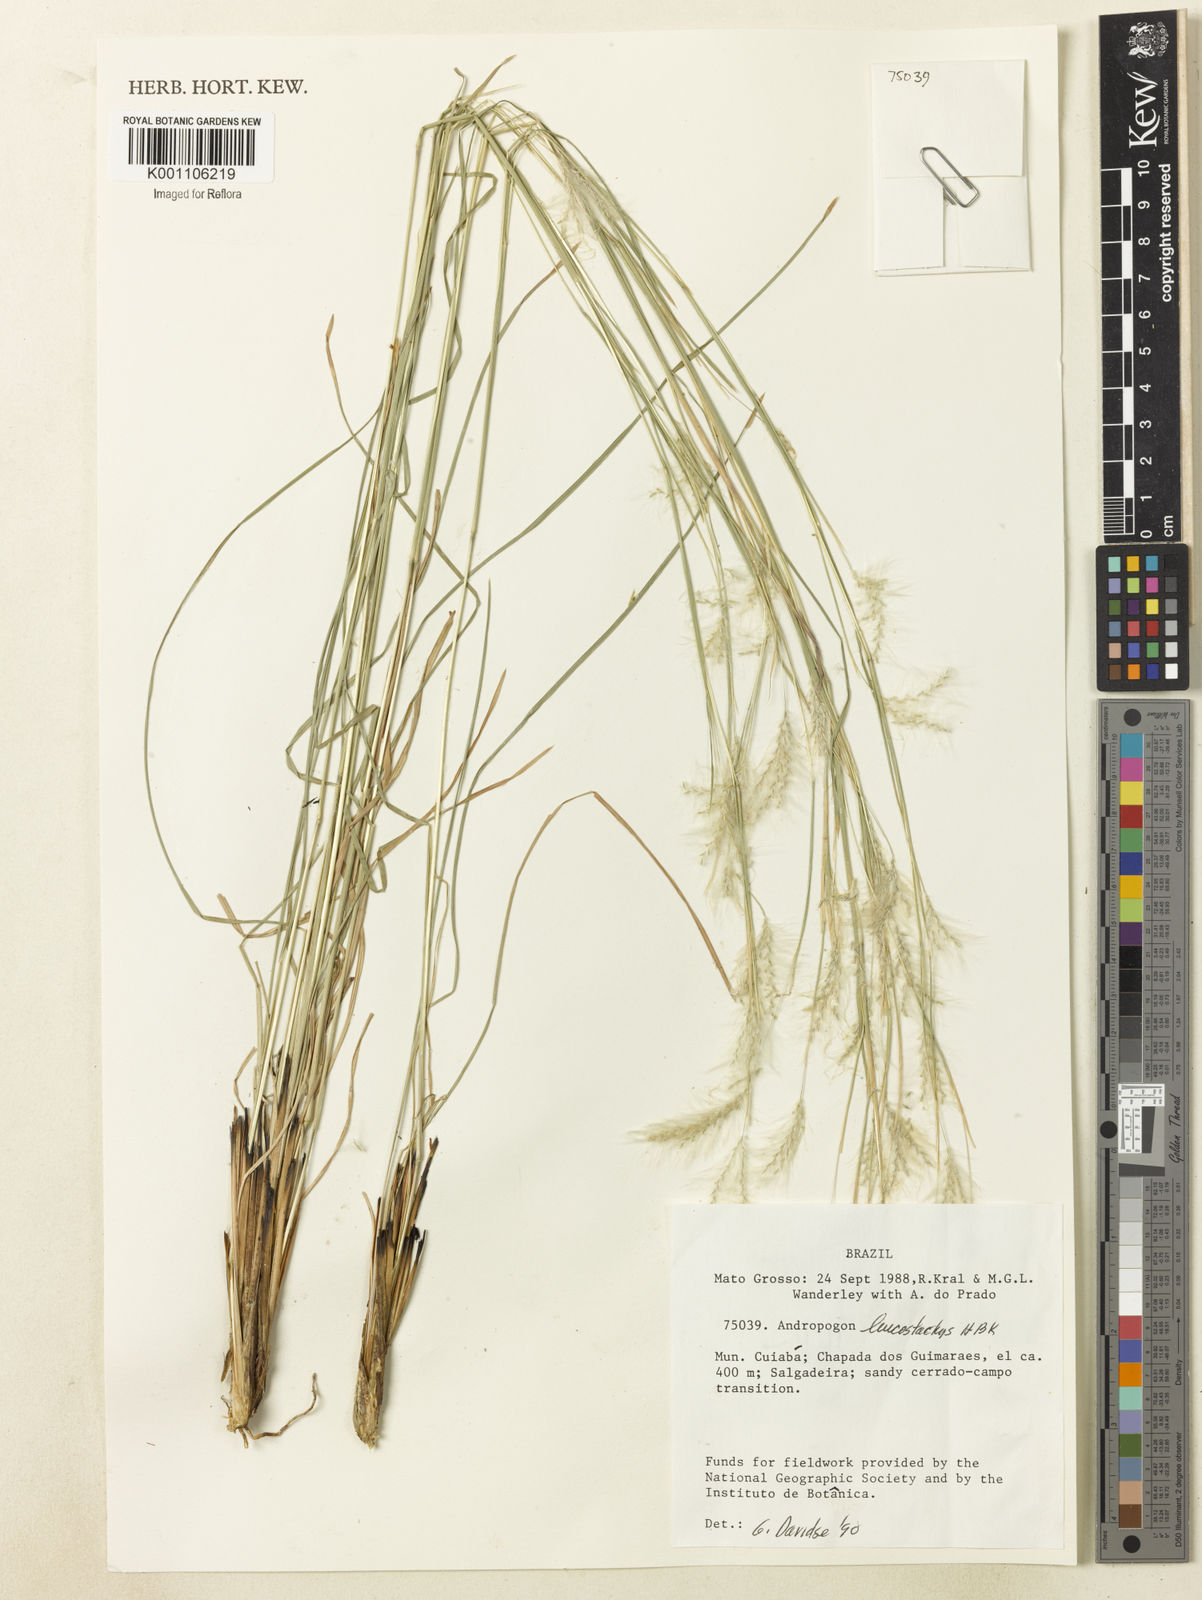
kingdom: Plantae
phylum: Tracheophyta
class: Liliopsida
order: Poales
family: Poaceae
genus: Andropogon
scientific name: Andropogon leucostachyus
